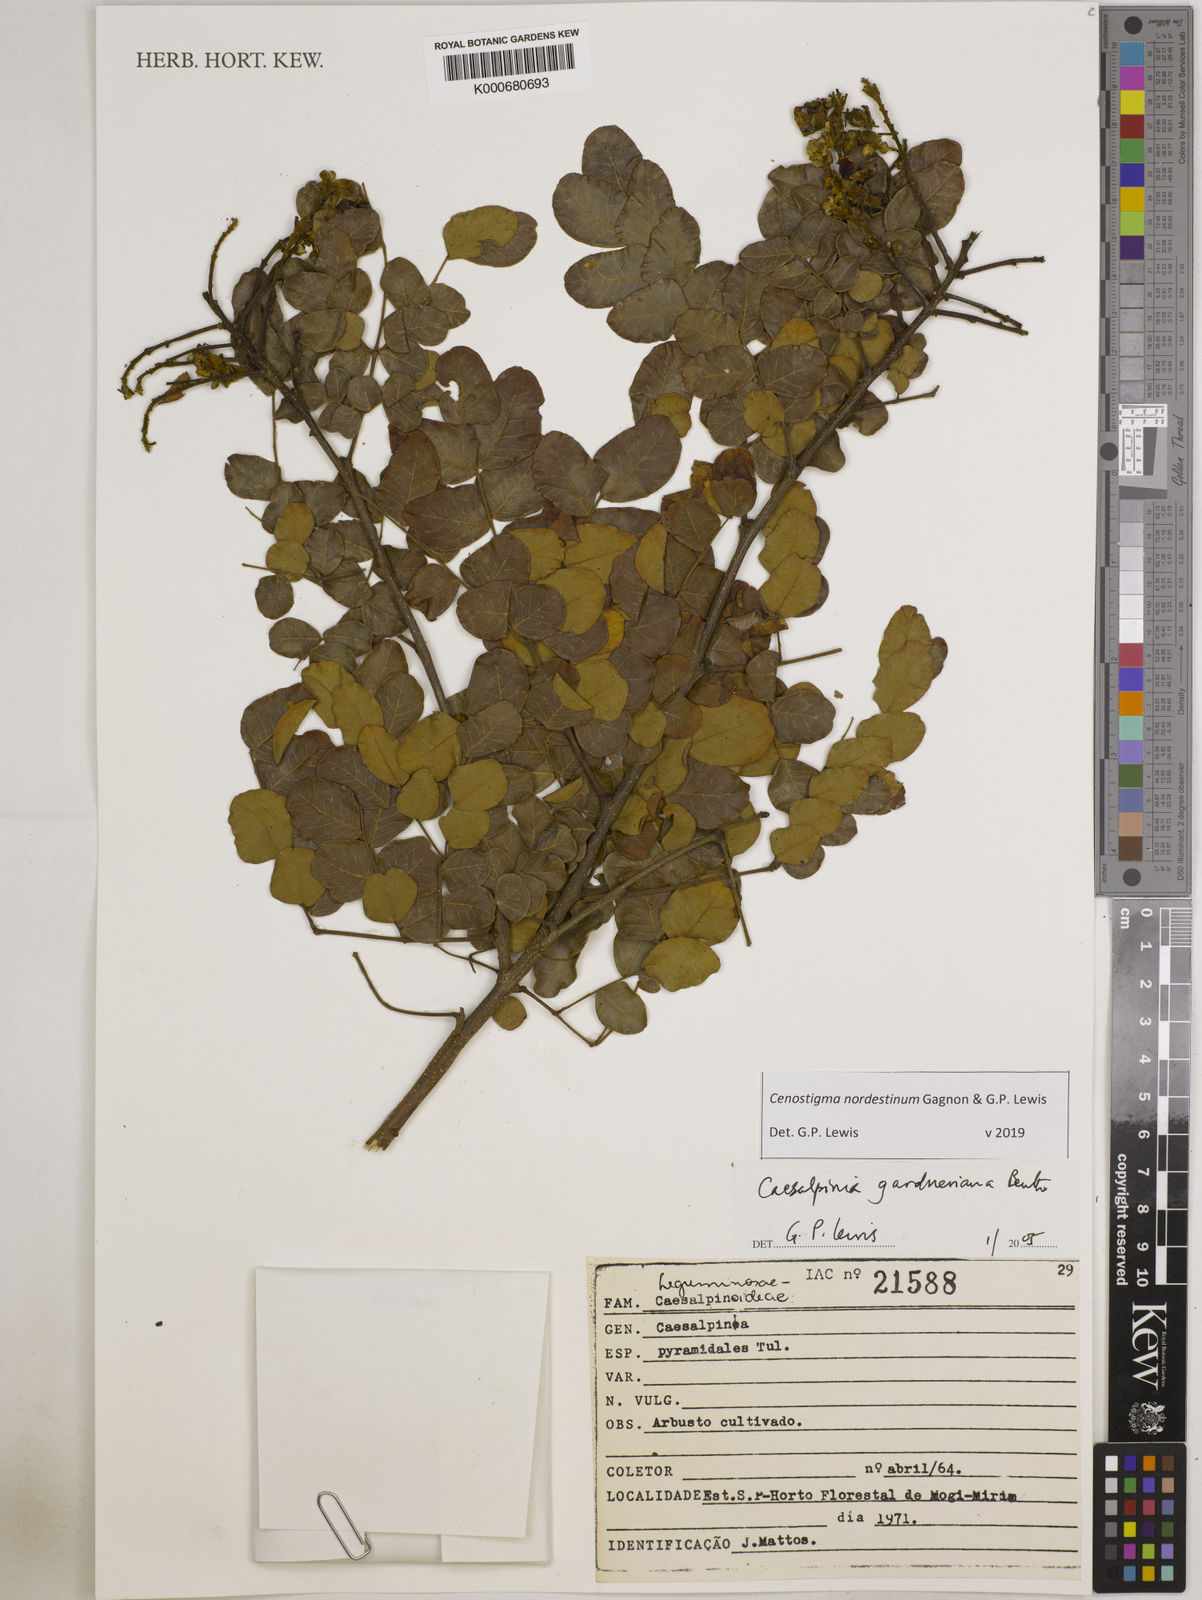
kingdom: Plantae
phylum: Tracheophyta
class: Magnoliopsida
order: Fabales
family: Fabaceae
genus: Cenostigma
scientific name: Cenostigma nordestinum
